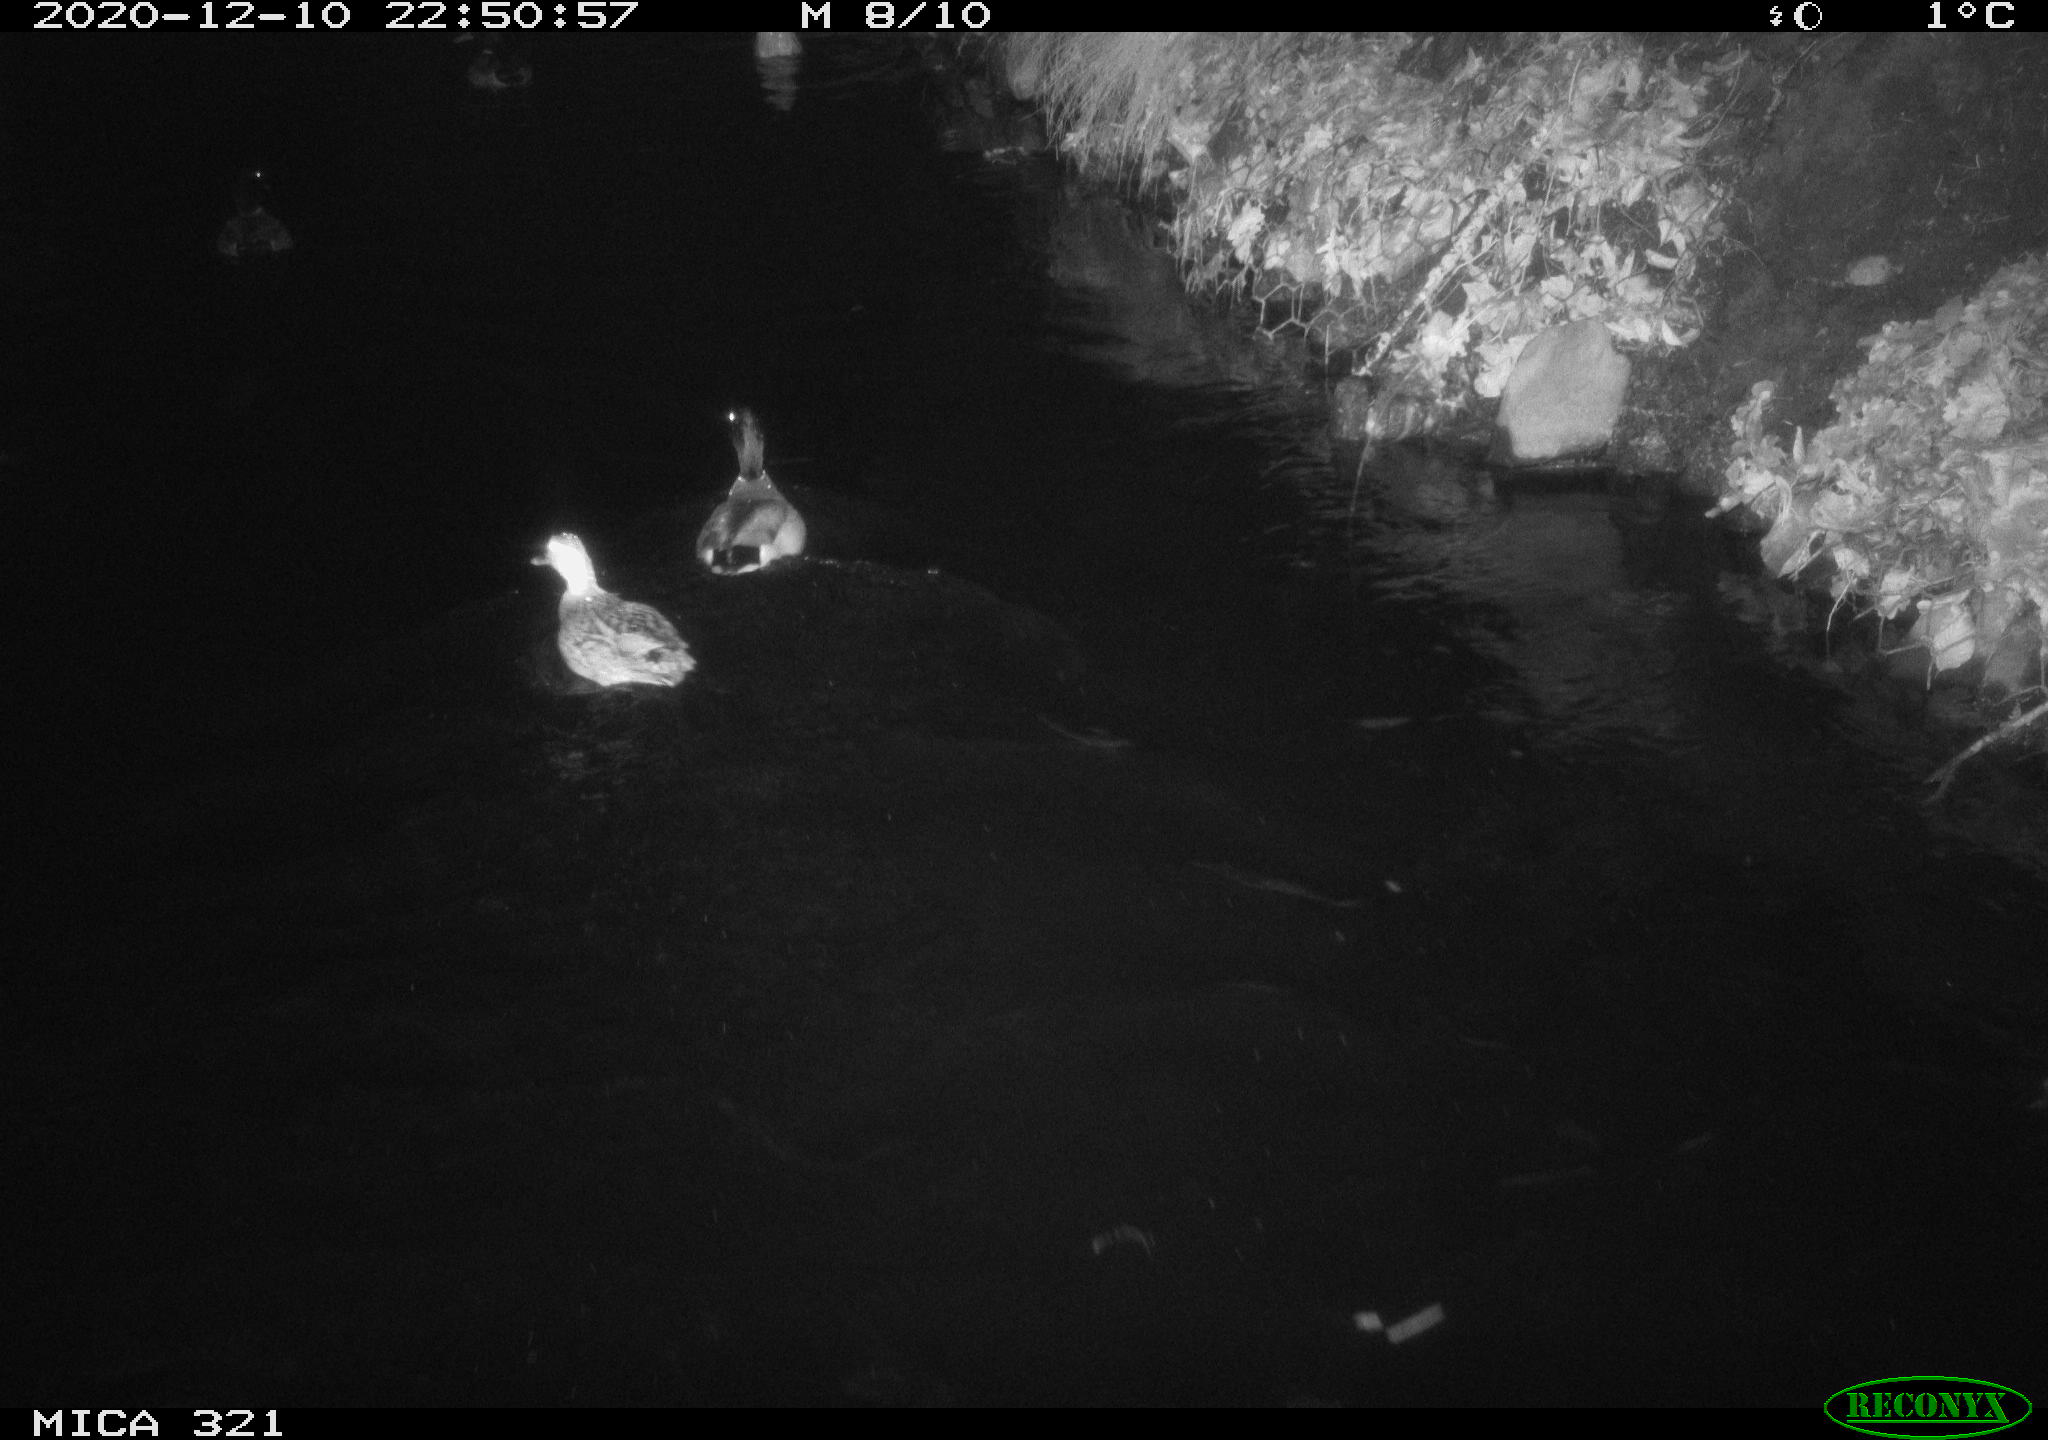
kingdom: Animalia
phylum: Chordata
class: Aves
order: Anseriformes
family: Anatidae
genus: Anas
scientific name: Anas platyrhynchos
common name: Mallard
